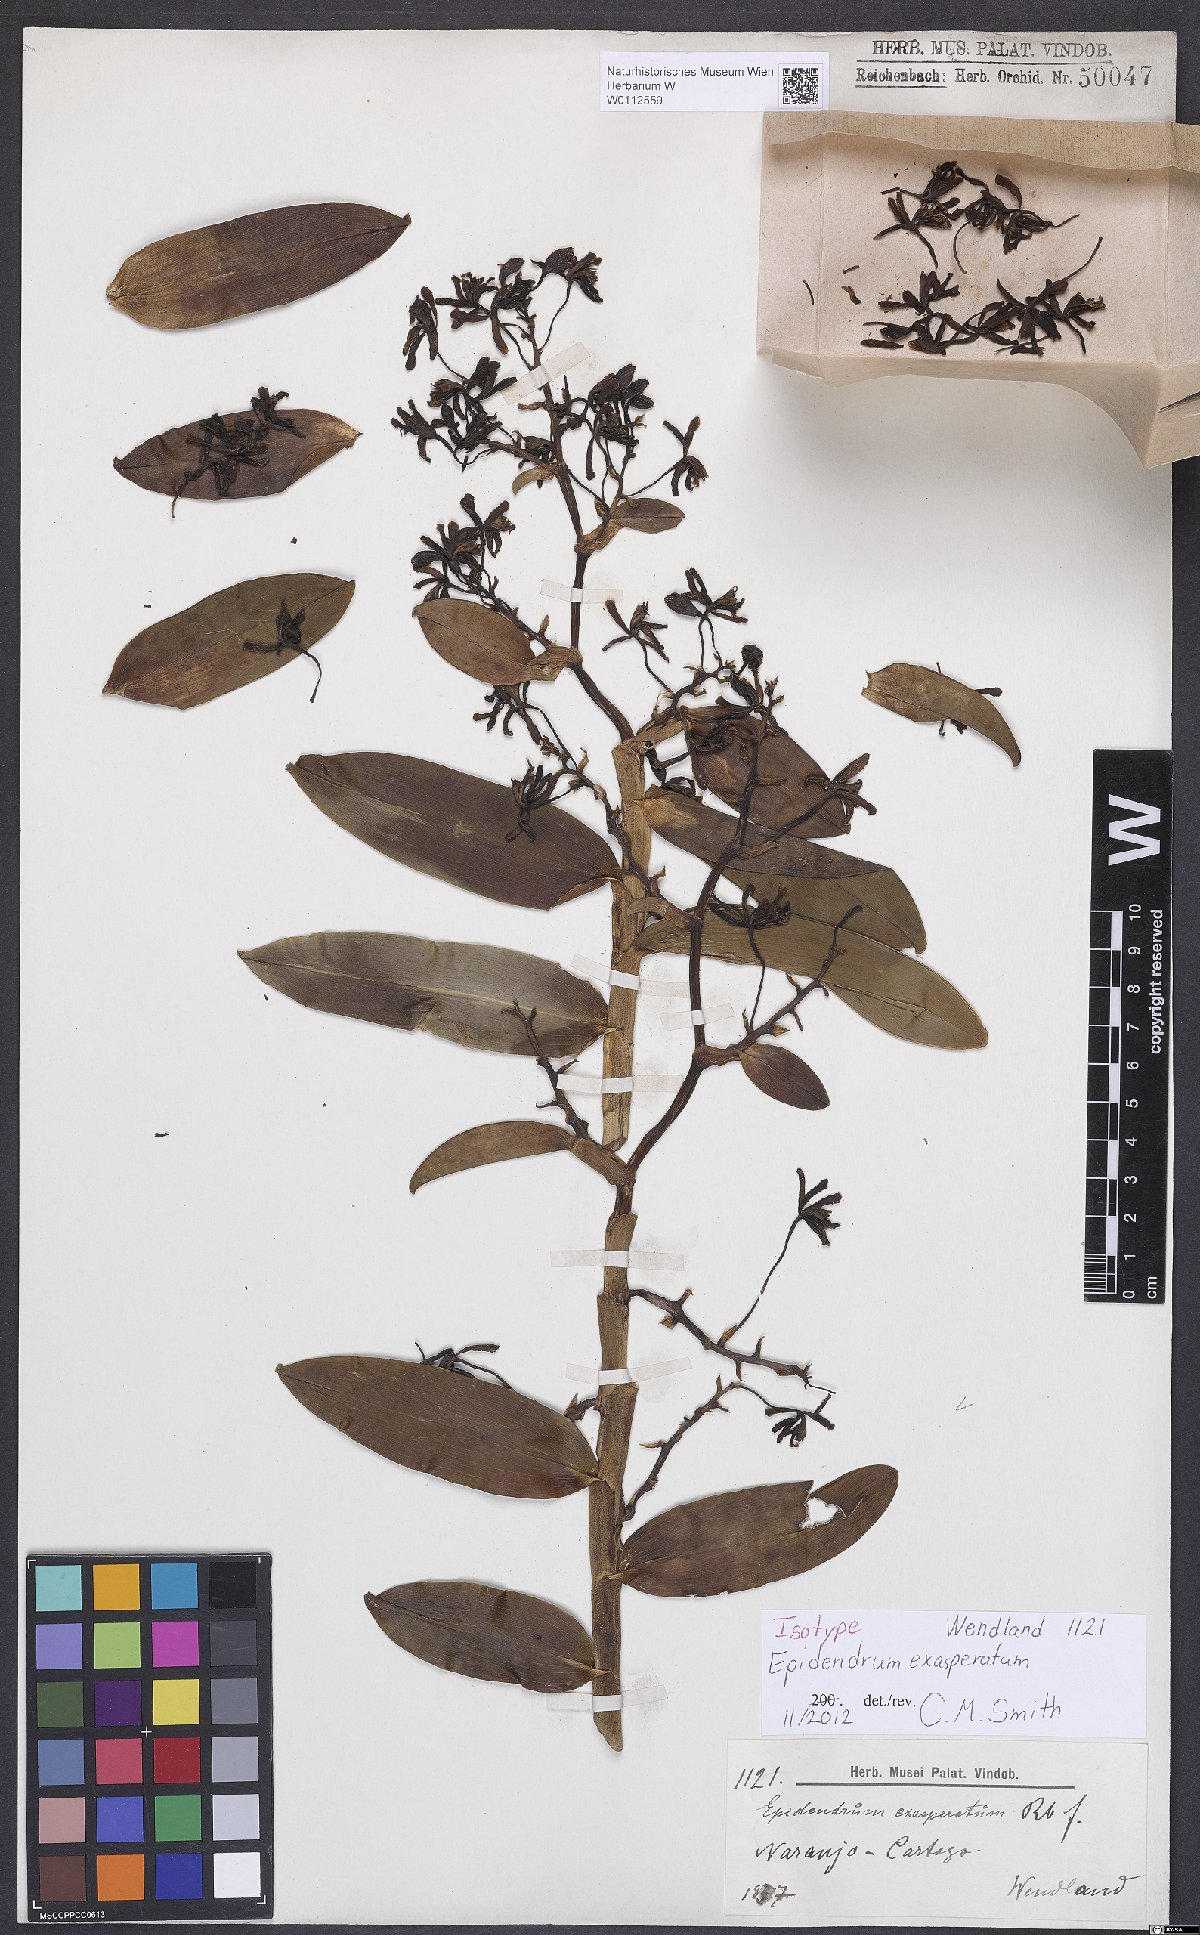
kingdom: Plantae
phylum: Tracheophyta
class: Liliopsida
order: Asparagales
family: Orchidaceae
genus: Epidendrum
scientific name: Epidendrum exasperatum
